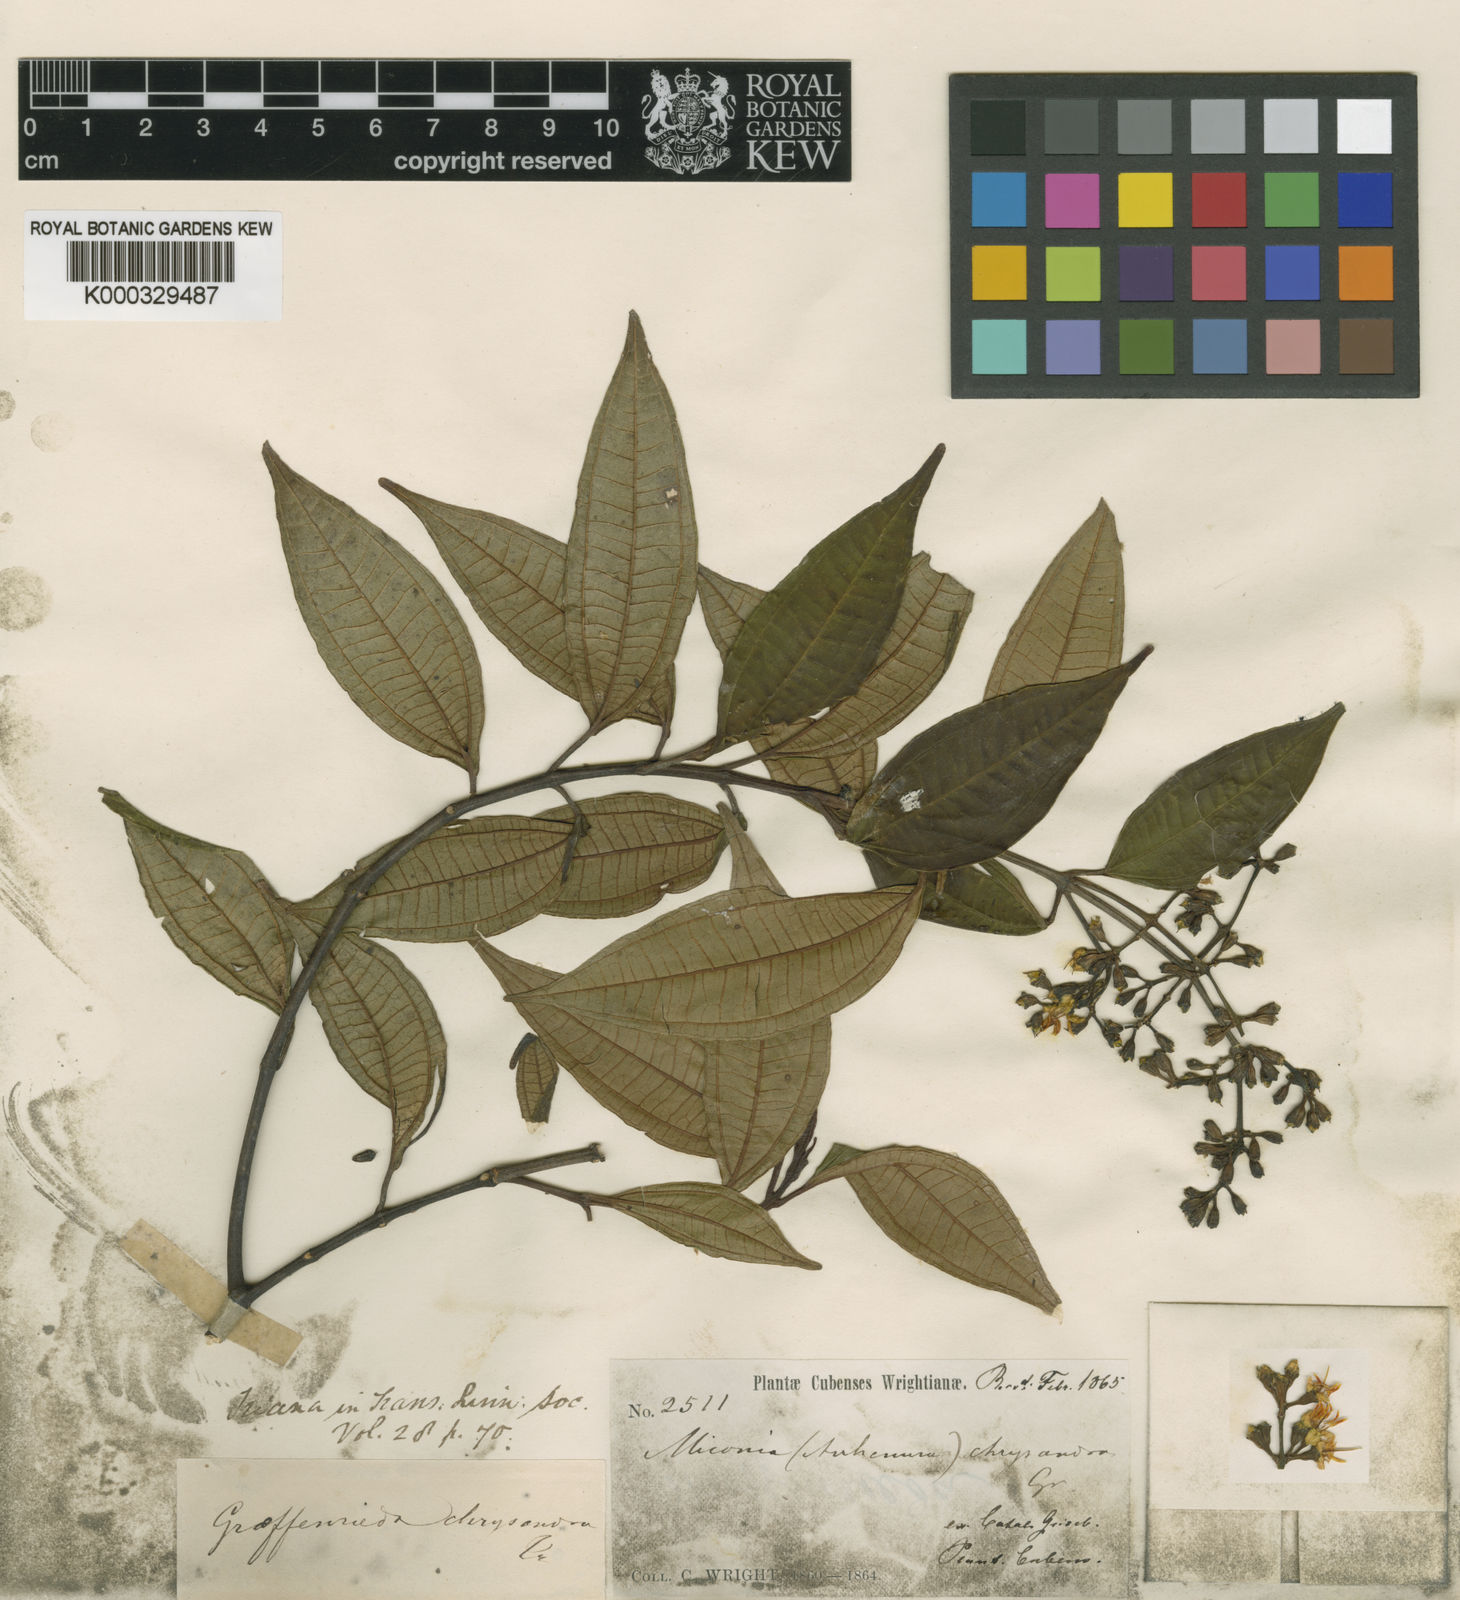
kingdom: Plantae
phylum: Tracheophyta
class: Magnoliopsida
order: Myrtales
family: Melastomataceae
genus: Graffenrieda
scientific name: Graffenrieda chrysandra
